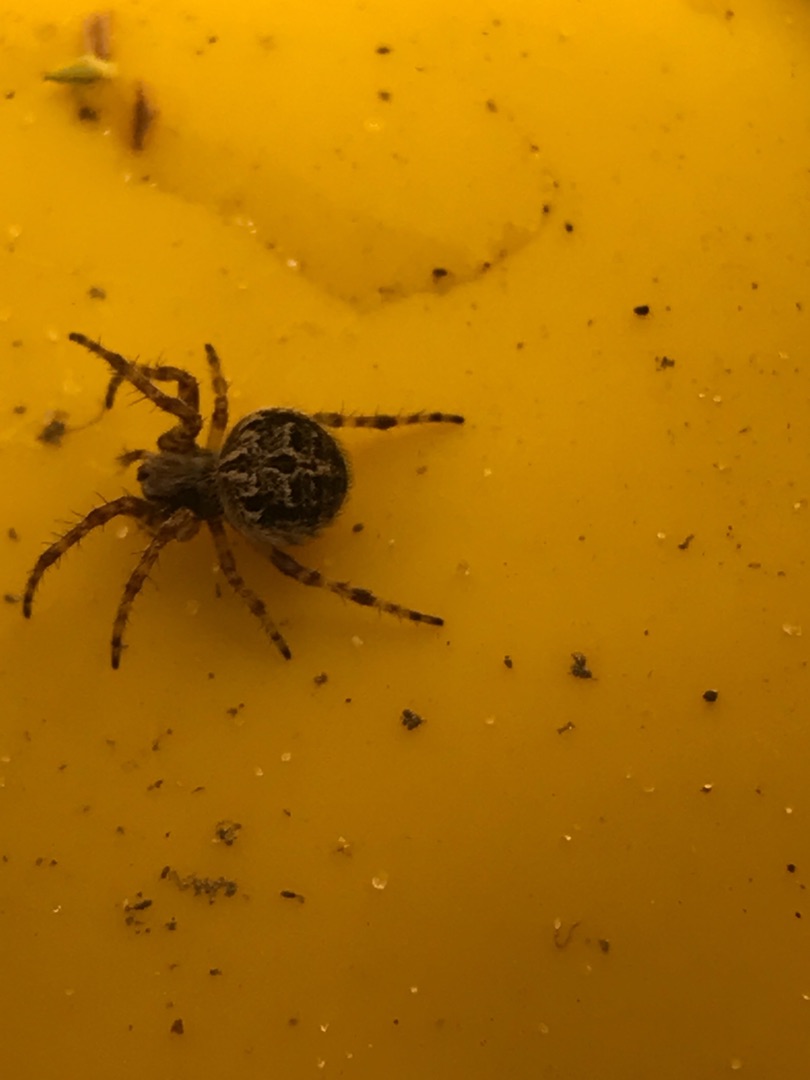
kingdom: Animalia
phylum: Arthropoda
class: Arachnida
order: Araneae
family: Araneidae
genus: Agalenatea
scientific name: Agalenatea redii
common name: Lodden hjulspinder
